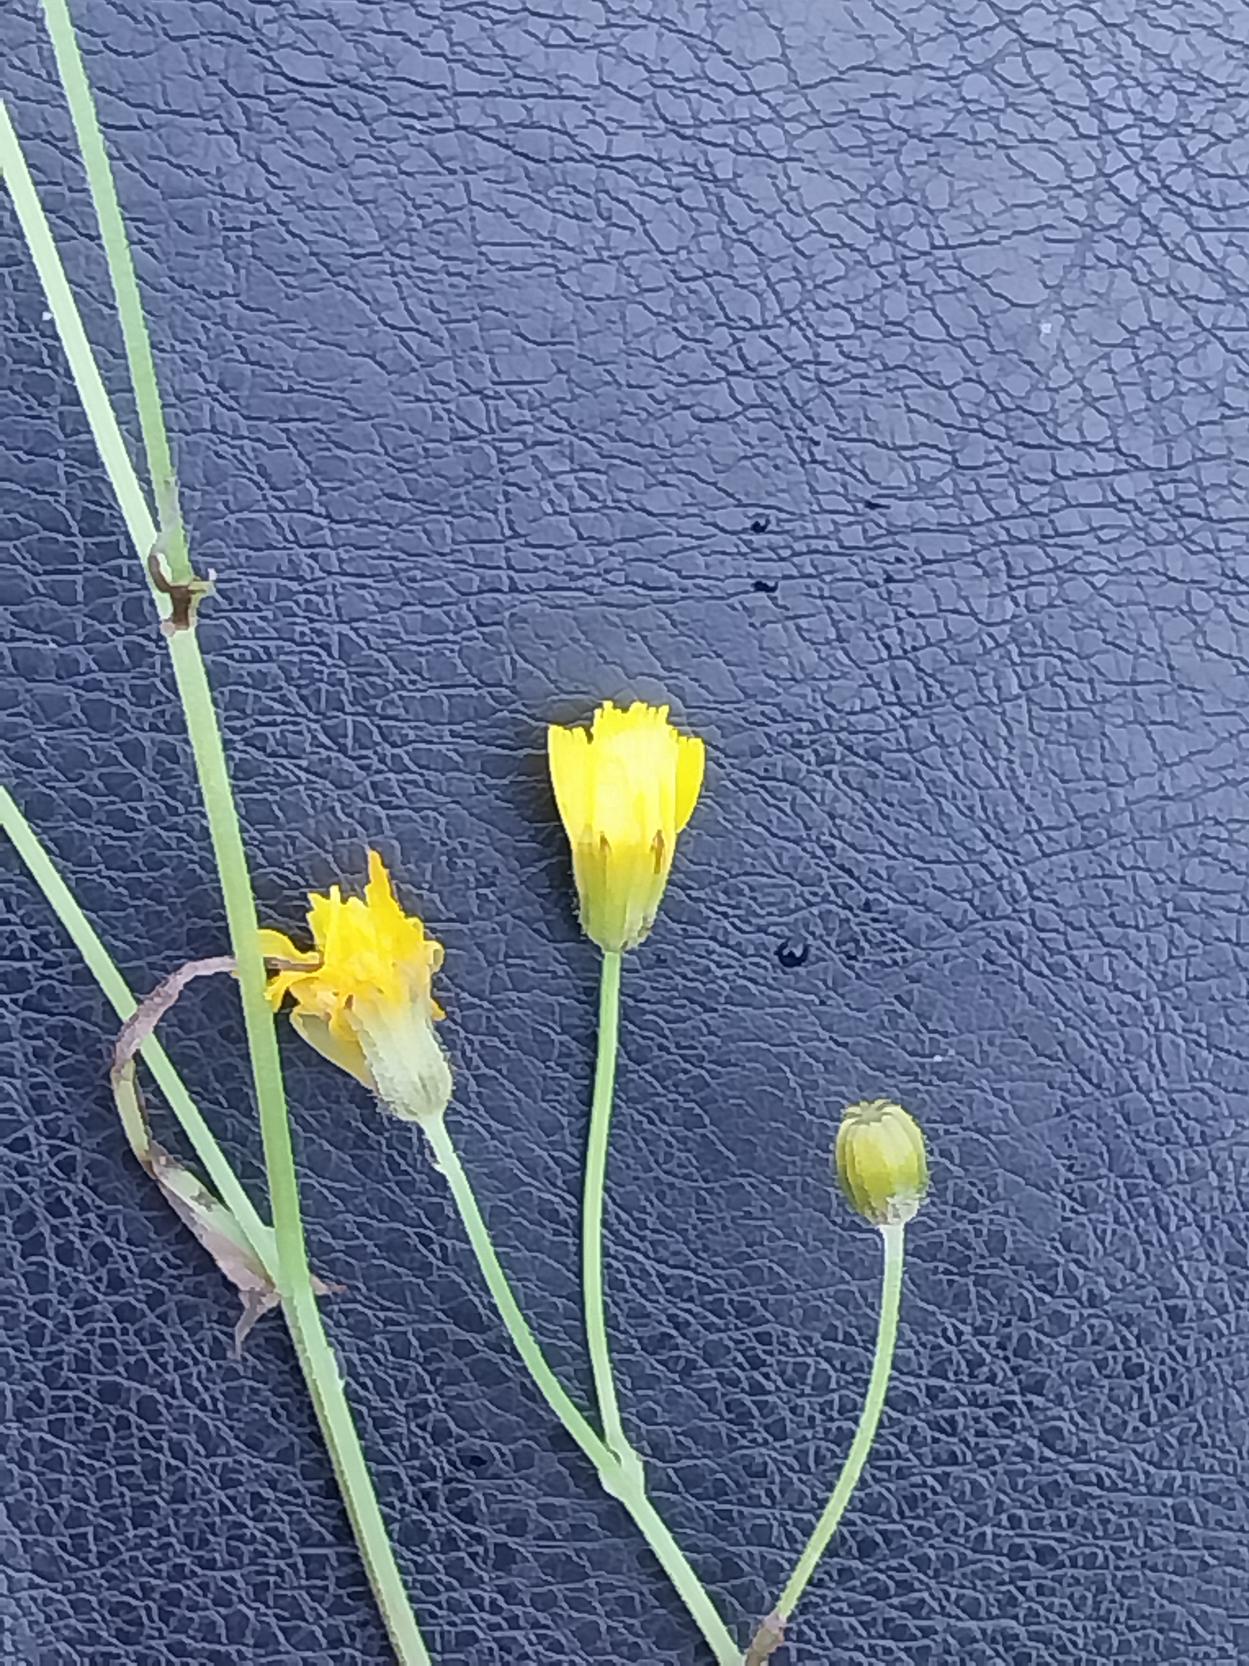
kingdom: Plantae
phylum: Tracheophyta
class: Magnoliopsida
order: Asterales
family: Asteraceae
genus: Crepis
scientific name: Crepis capillaris
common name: Grøn høgeskæg
